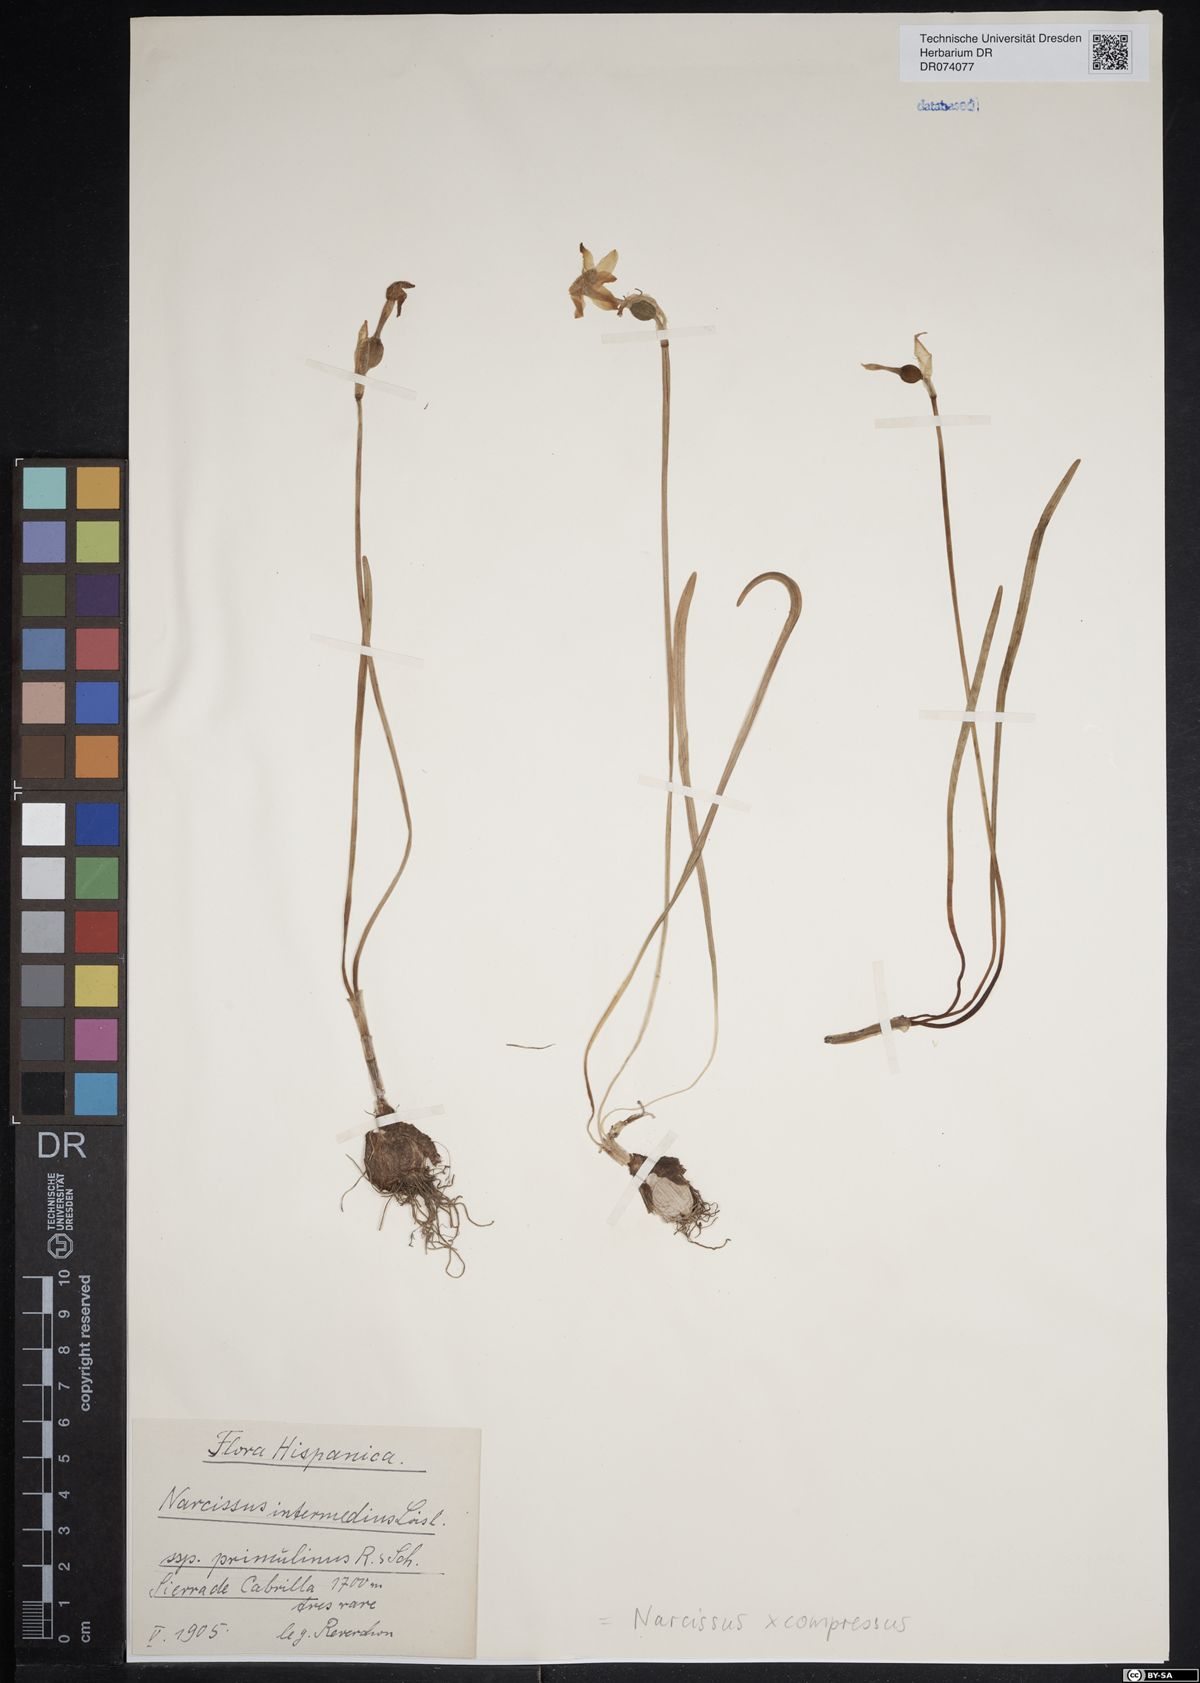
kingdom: Plantae
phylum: Tracheophyta
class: Liliopsida
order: Asparagales
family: Amaryllidaceae
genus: Narcissus
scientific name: Narcissus compressus
